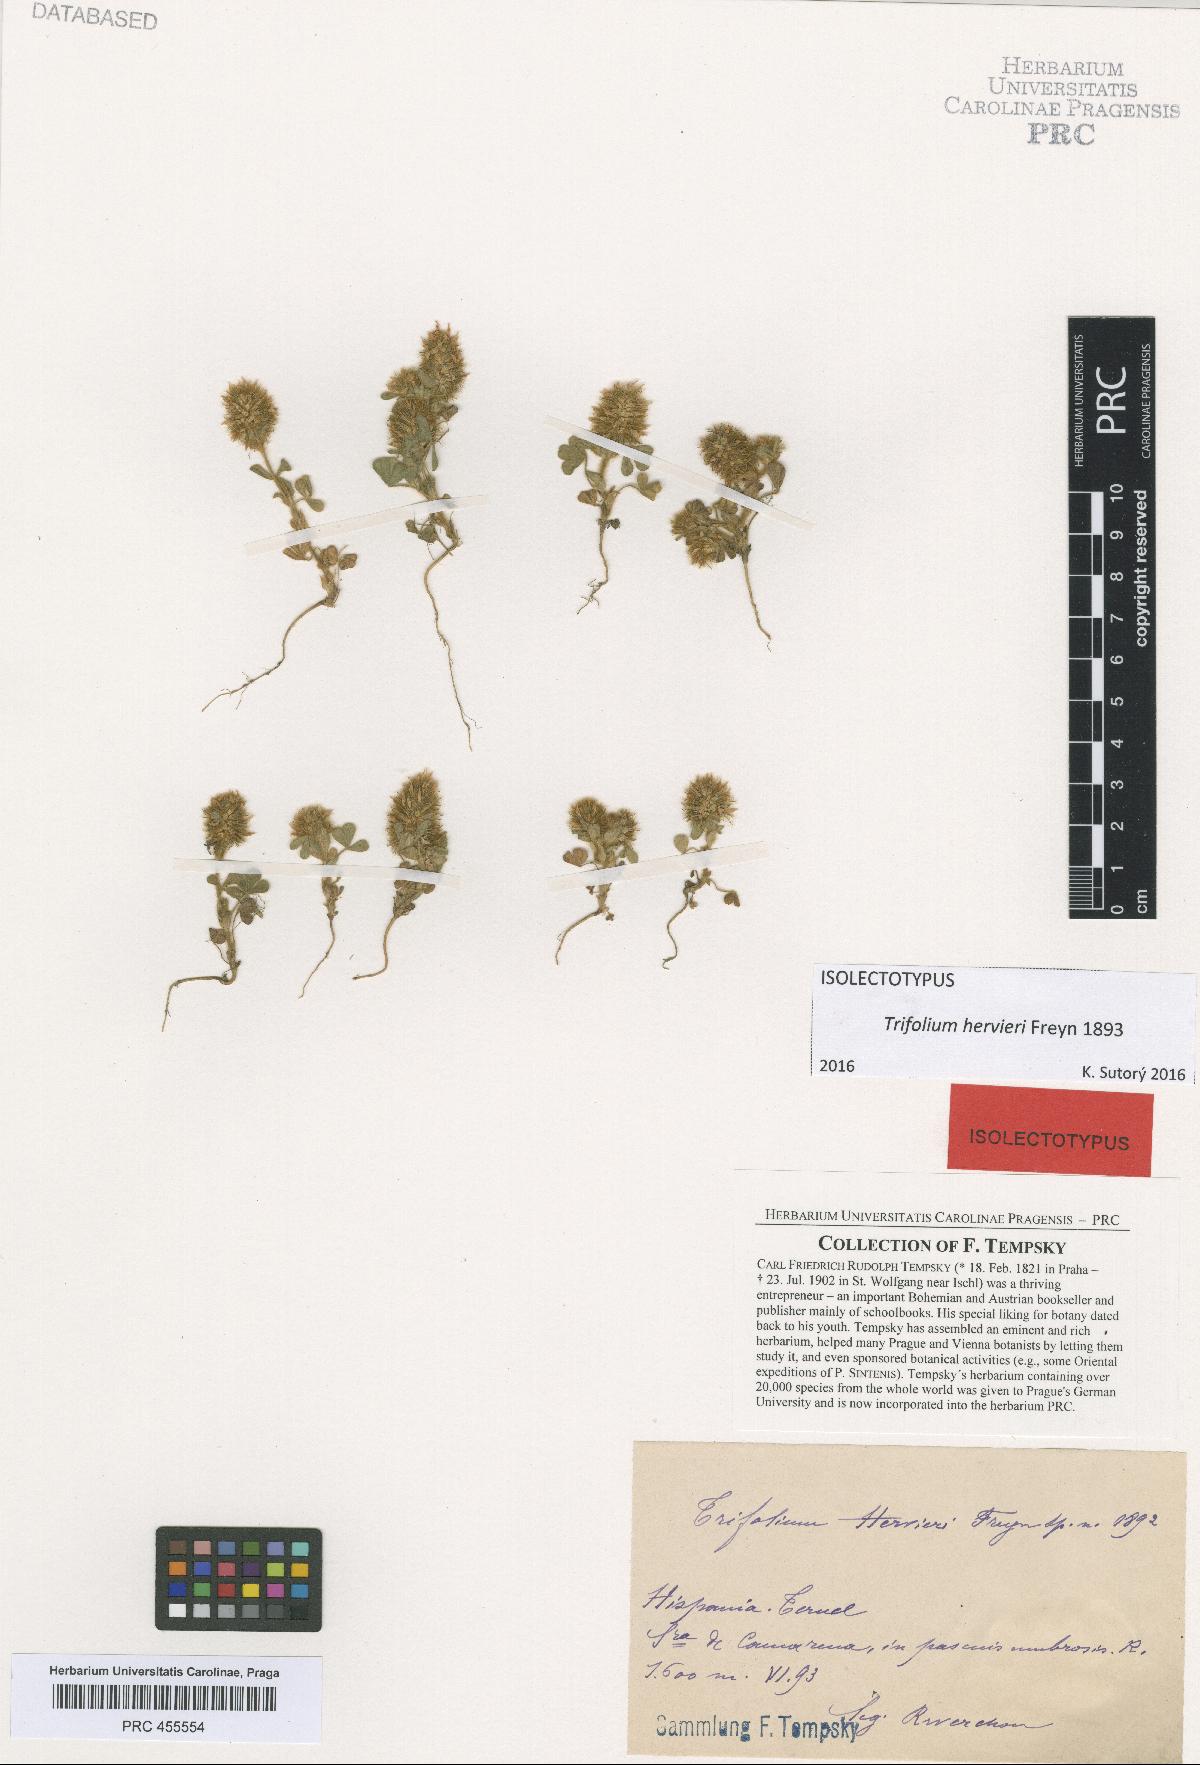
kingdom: Plantae
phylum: Tracheophyta
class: Magnoliopsida
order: Fabales
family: Fabaceae
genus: Trifolium
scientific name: Trifolium sylvaticum
